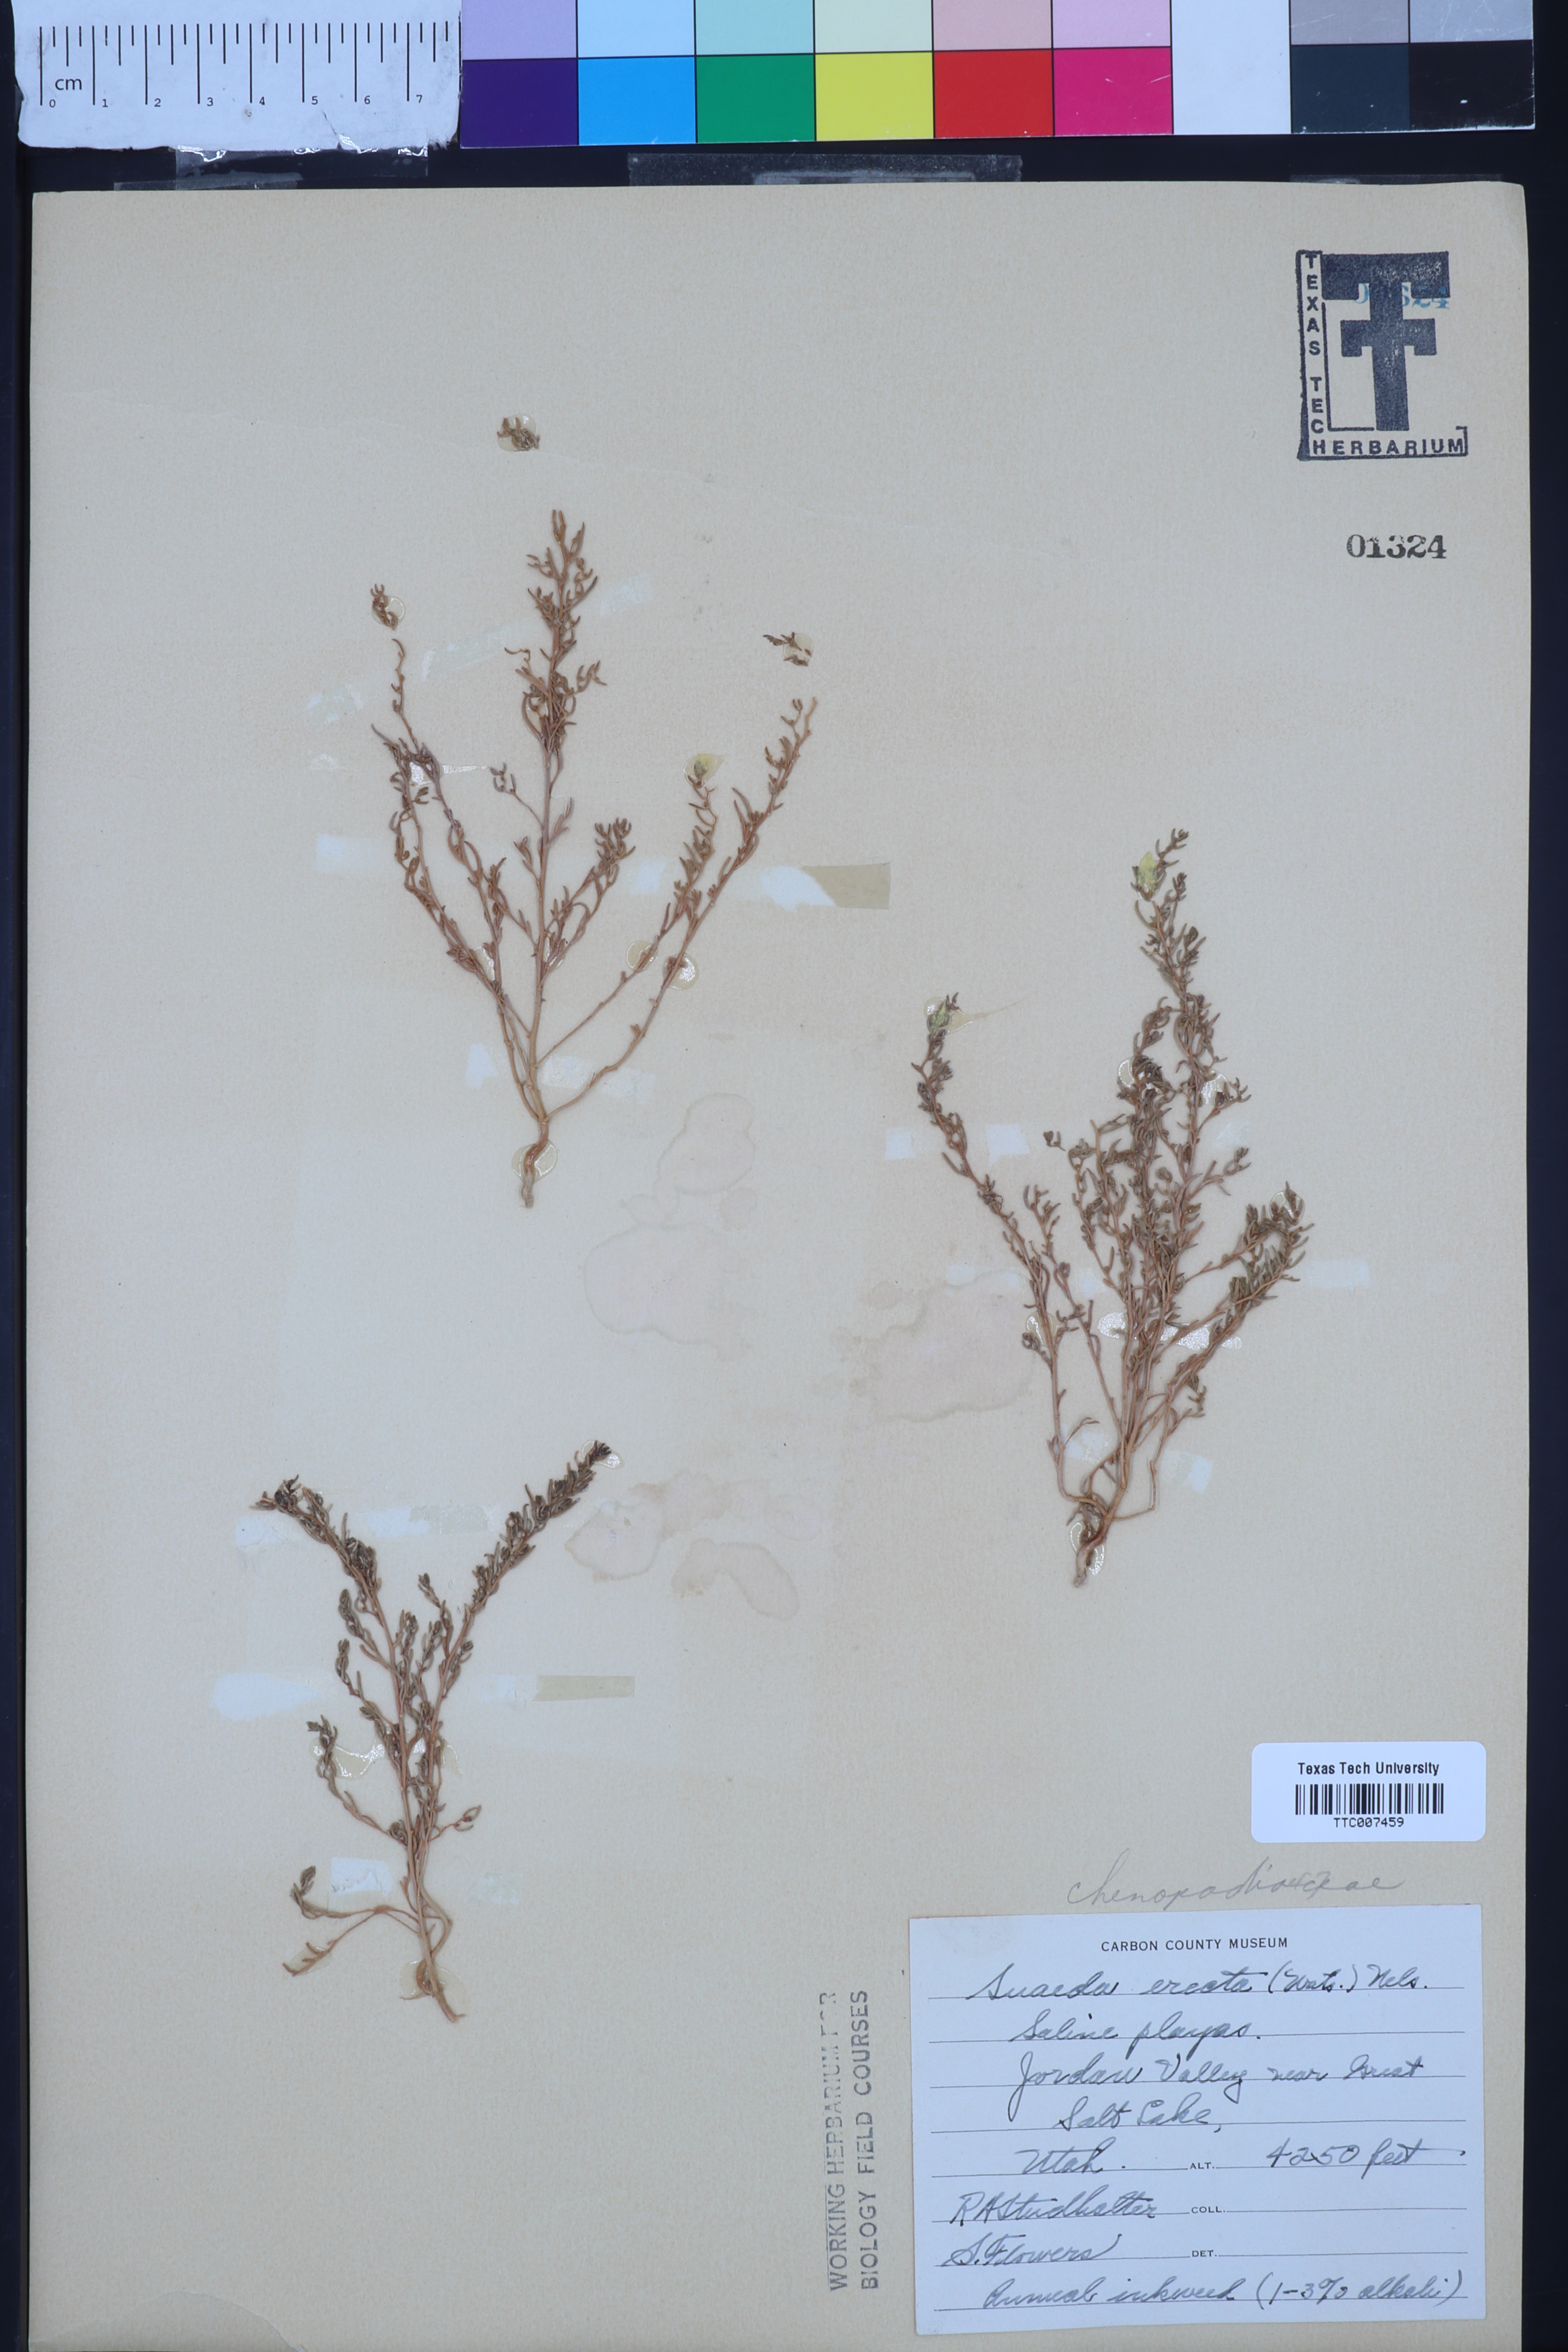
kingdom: Plantae
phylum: Tracheophyta
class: Magnoliopsida
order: Caryophyllales
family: Amaranthaceae
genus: Suaeda
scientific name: Suaeda calceoliformis
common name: Pursh's seepweed
